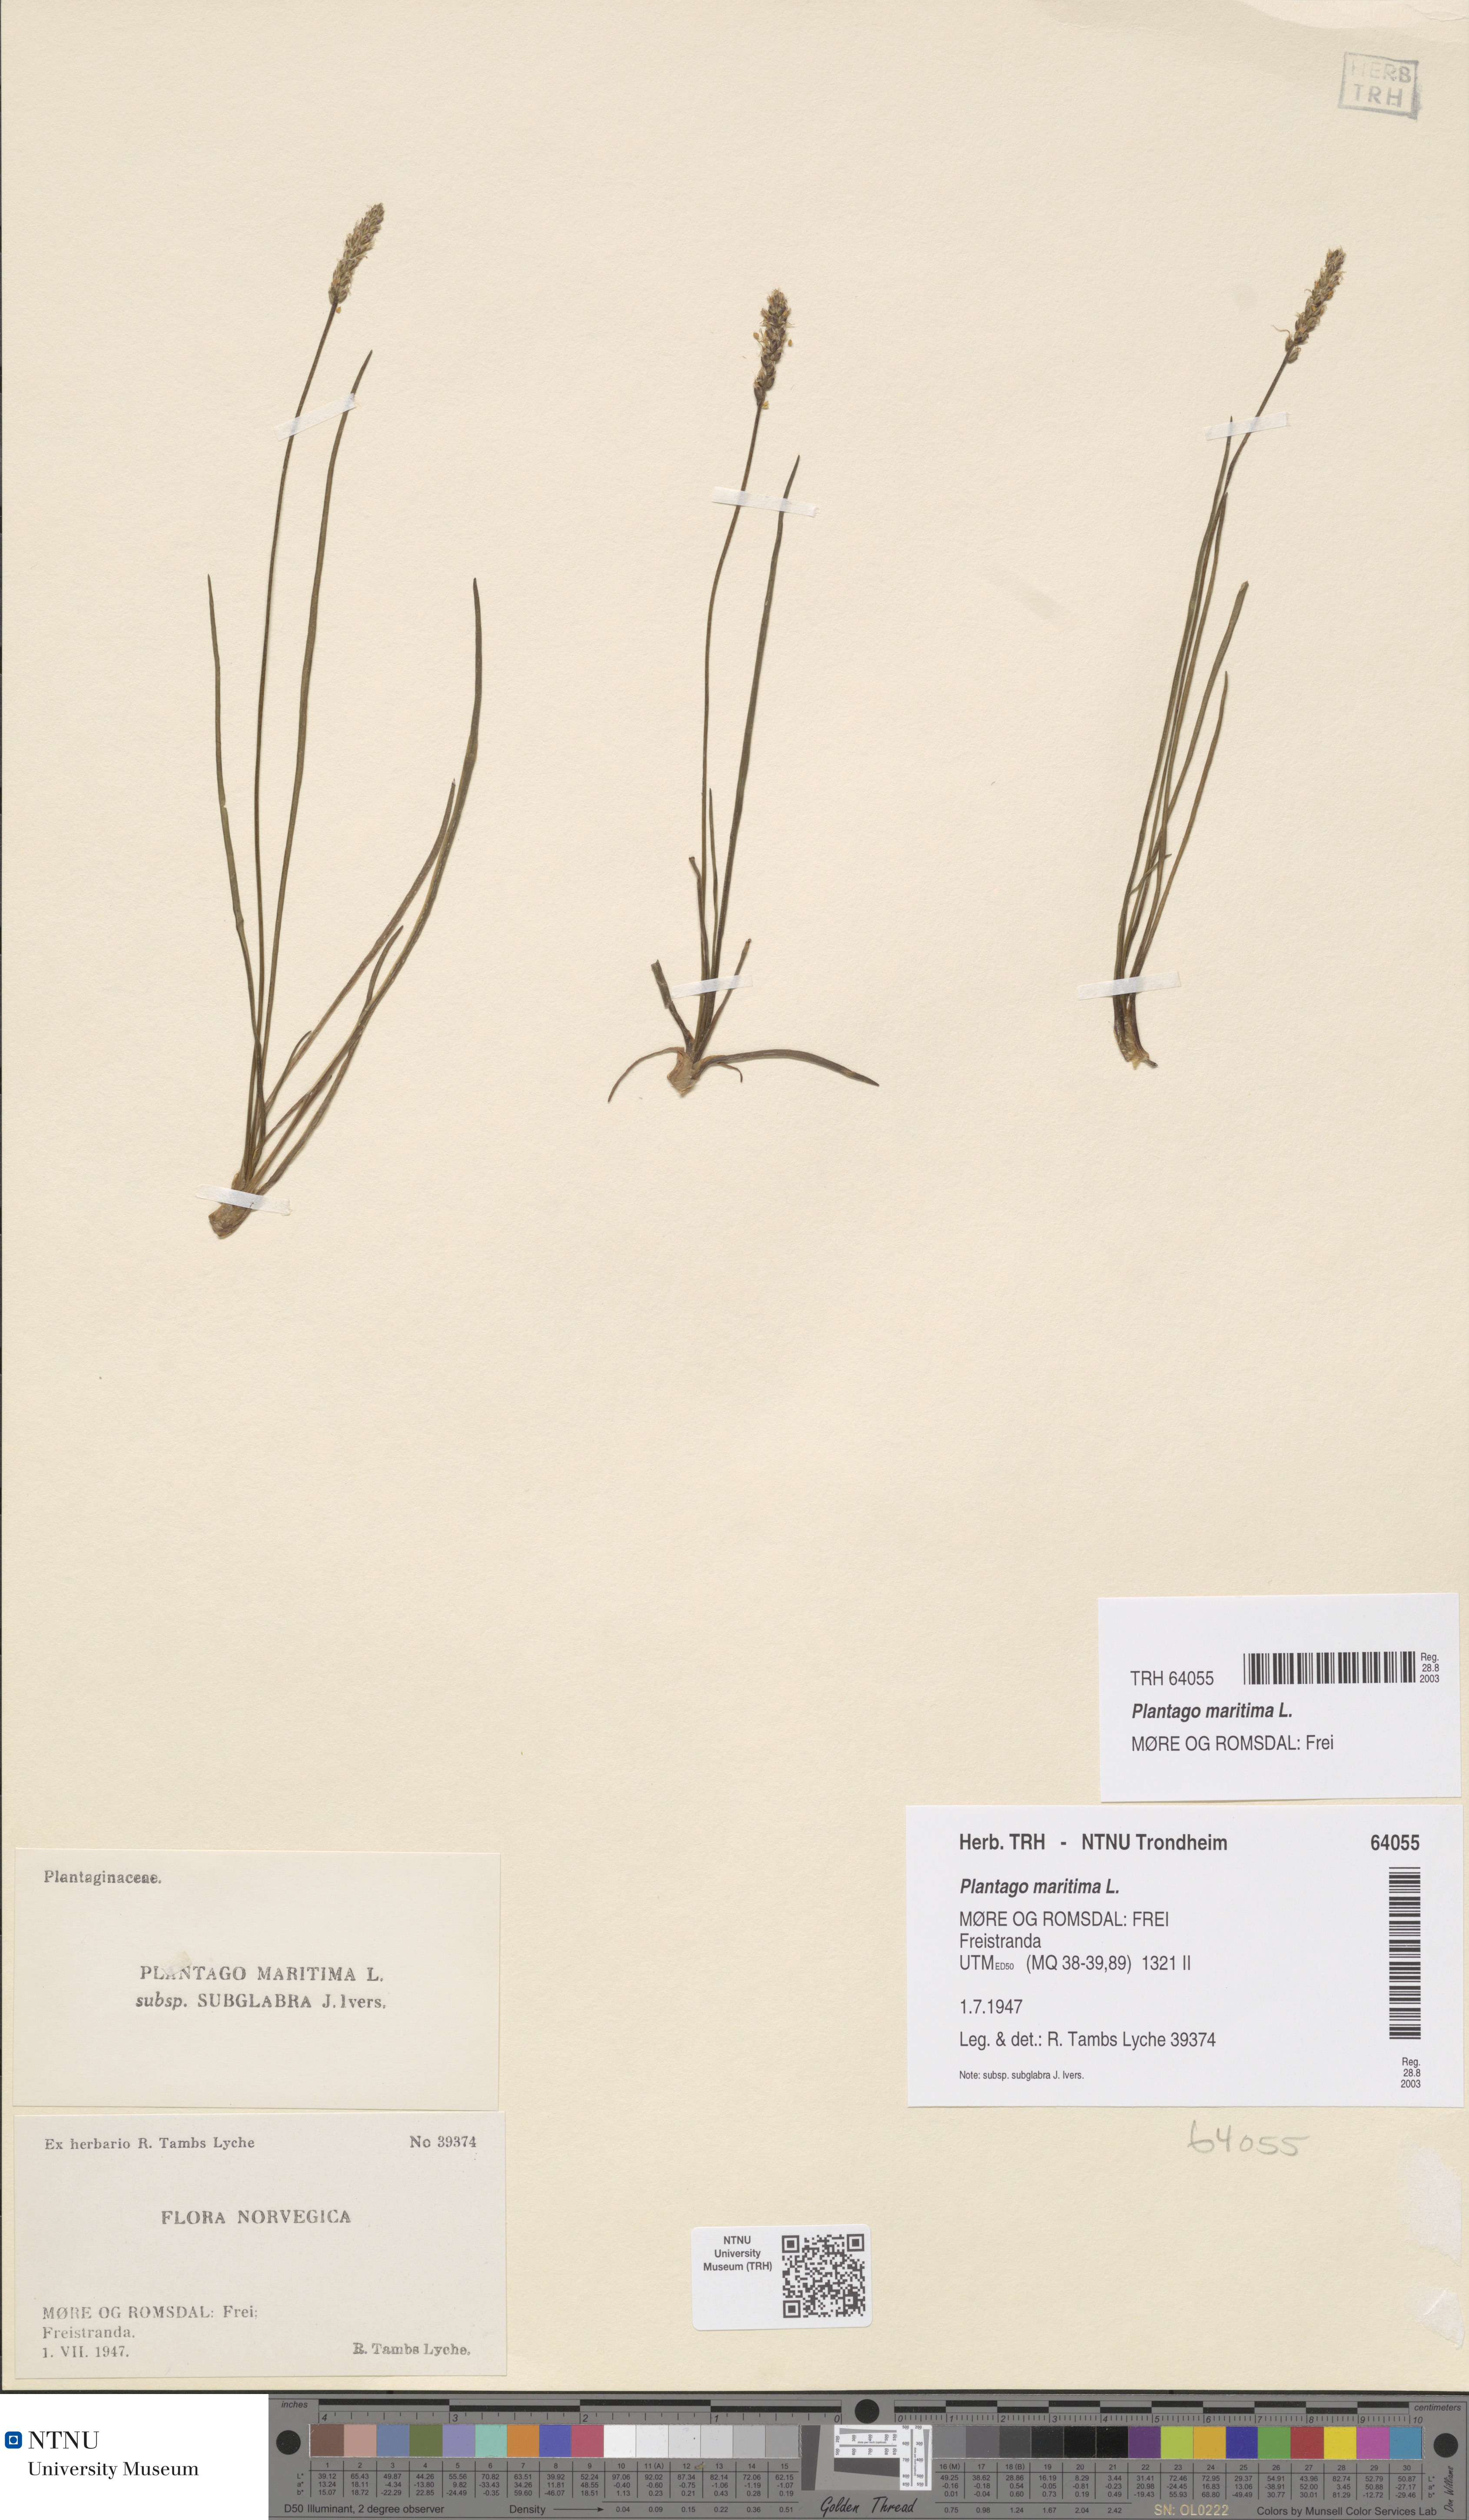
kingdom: Plantae
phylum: Tracheophyta
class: Magnoliopsida
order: Lamiales
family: Plantaginaceae
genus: Plantago
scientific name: Plantago maritima
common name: Sea plantain
